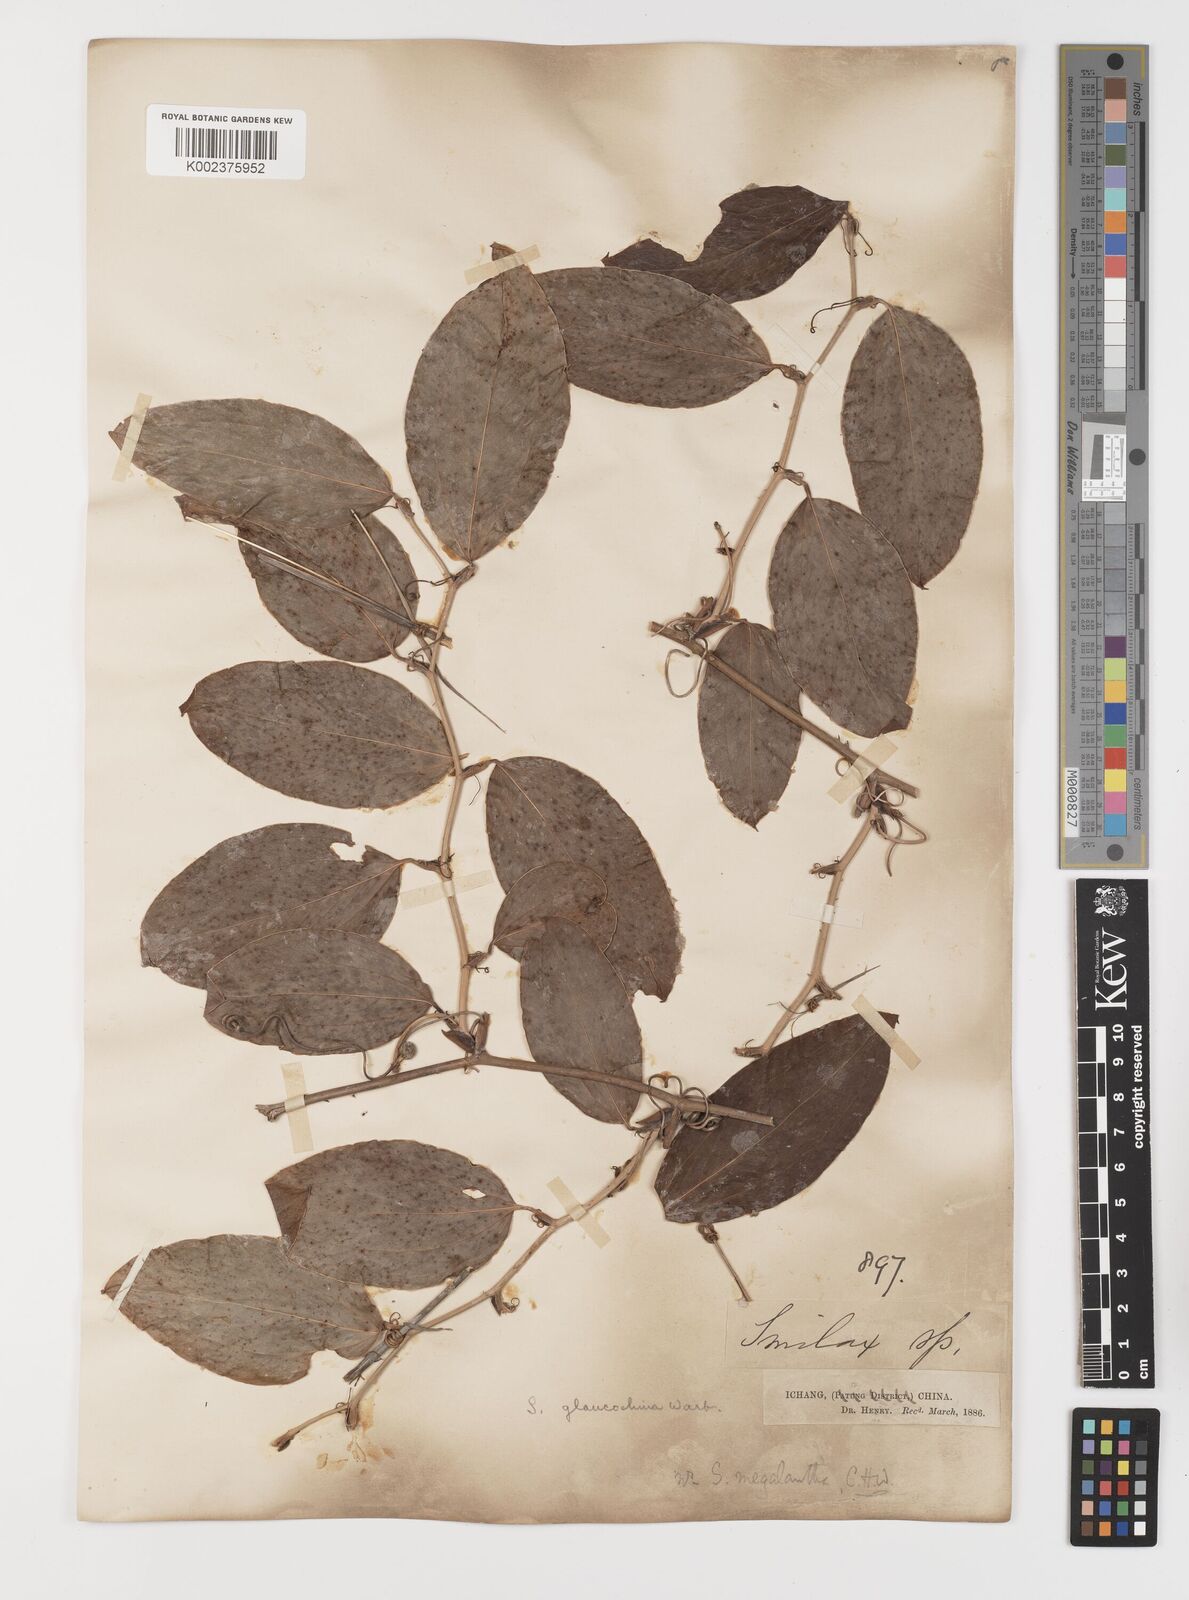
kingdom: Plantae
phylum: Tracheophyta
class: Liliopsida
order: Liliales
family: Smilacaceae
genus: Smilax
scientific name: Smilax glaucochina
